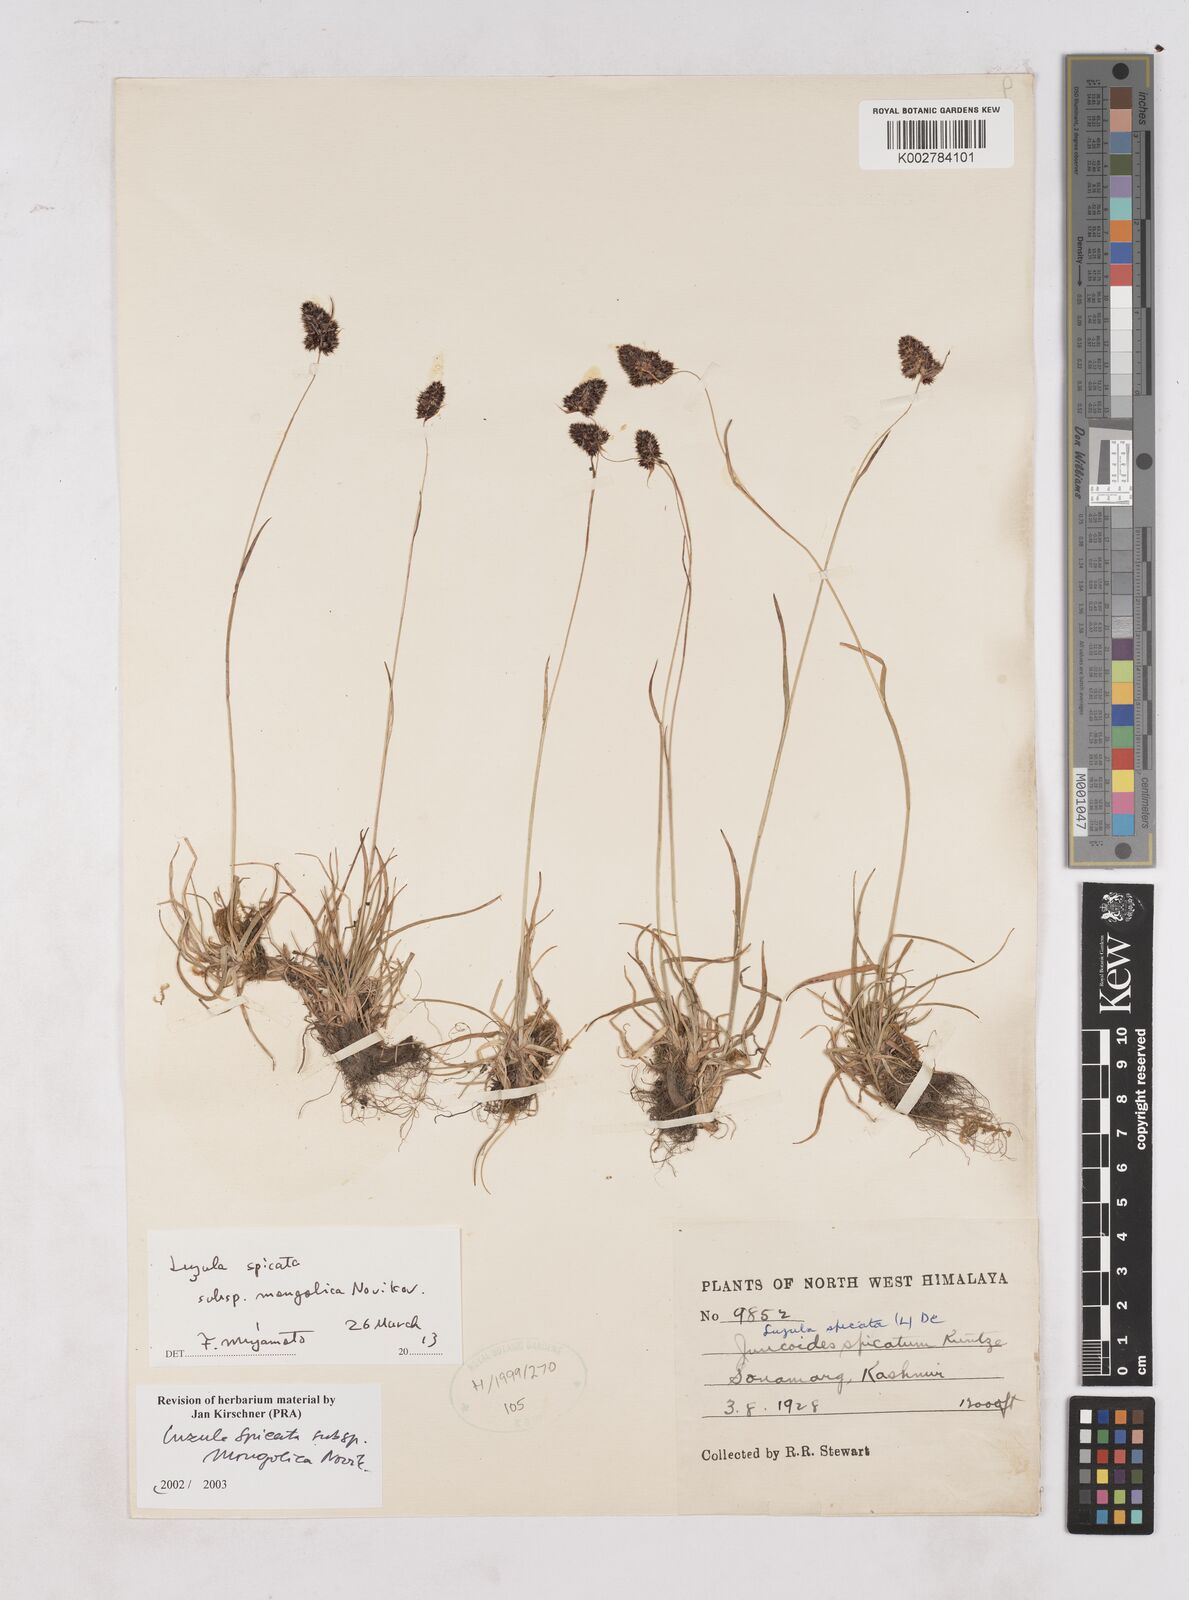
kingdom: Plantae
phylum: Tracheophyta
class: Liliopsida
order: Poales
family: Juncaceae
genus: Luzula
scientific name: Luzula spicata
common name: Spiked wood-rush
